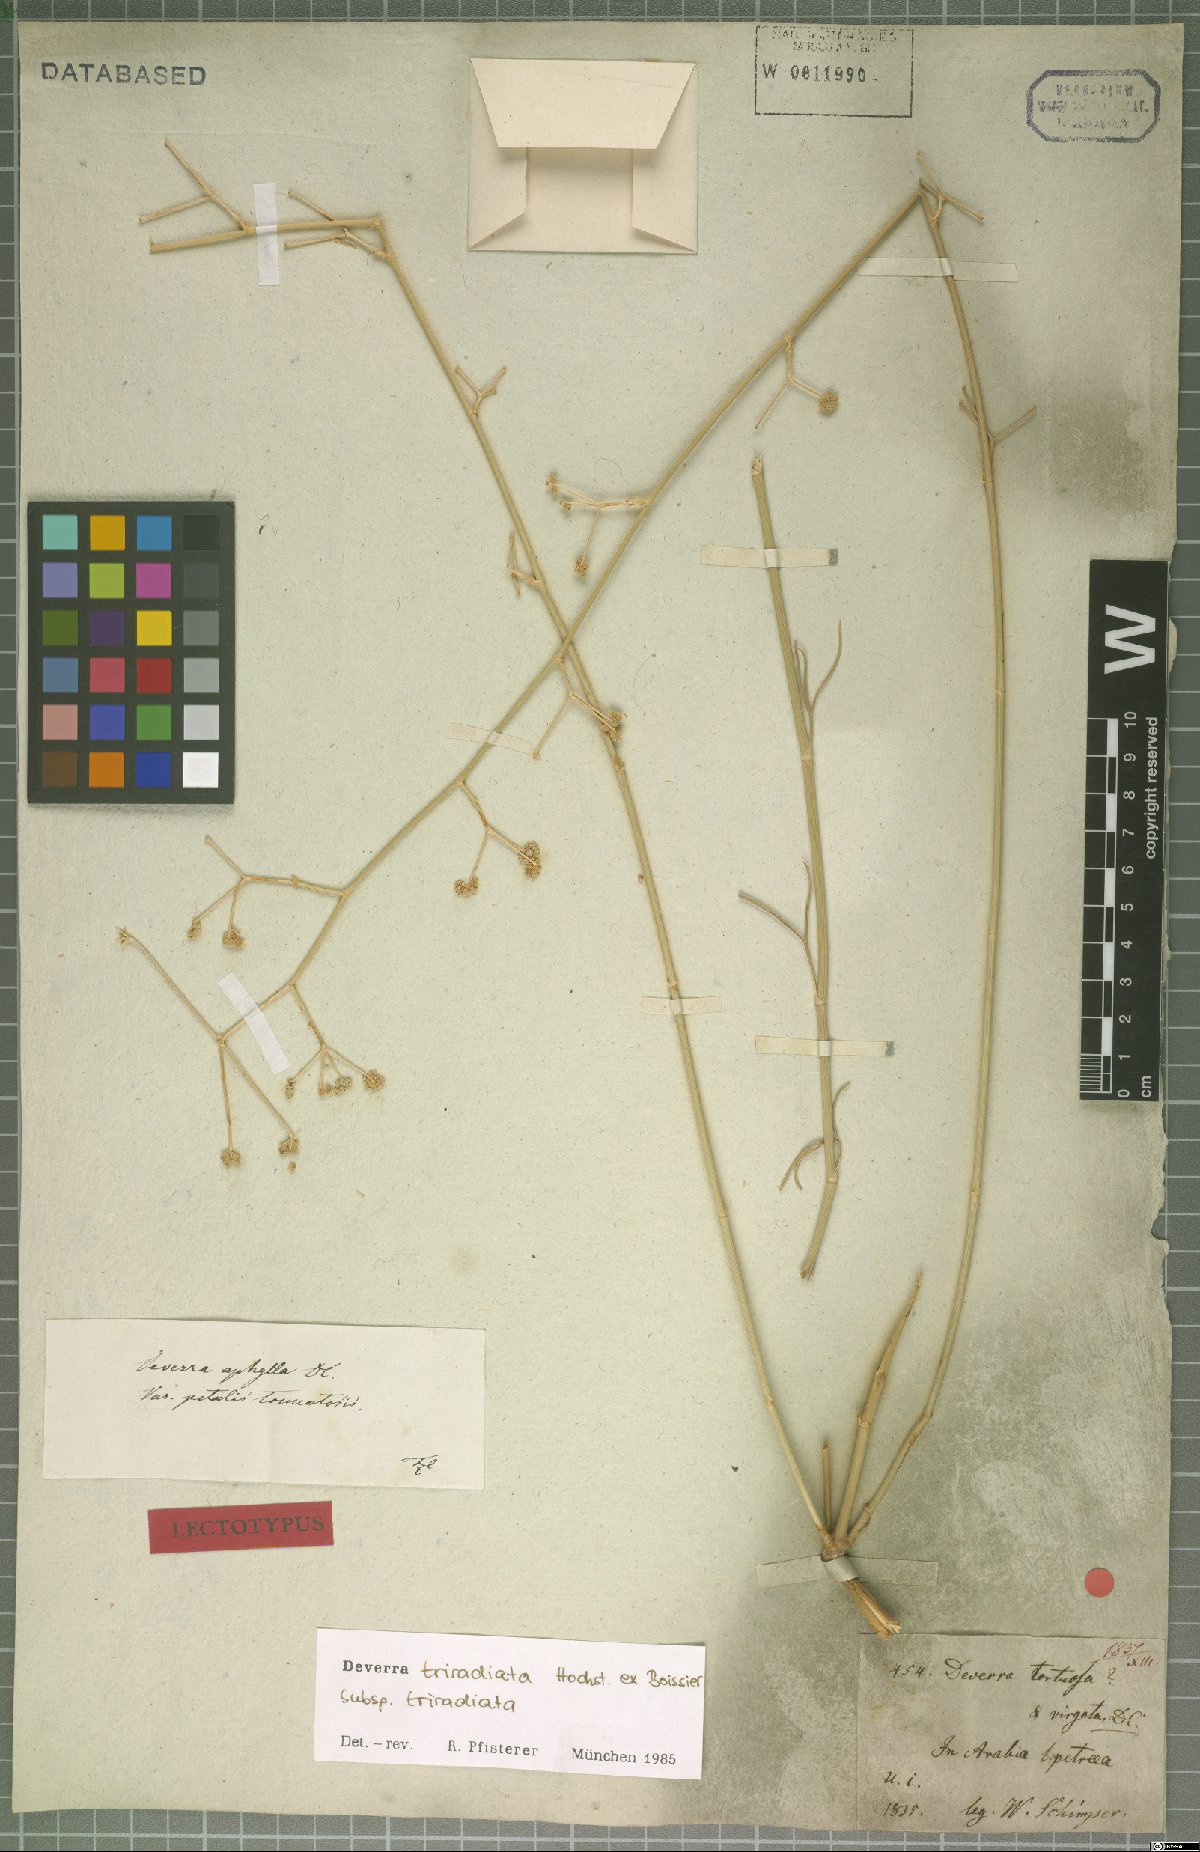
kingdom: Plantae
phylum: Tracheophyta
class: Magnoliopsida
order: Apiales
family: Apiaceae
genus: Deverra
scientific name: Deverra triradiata
